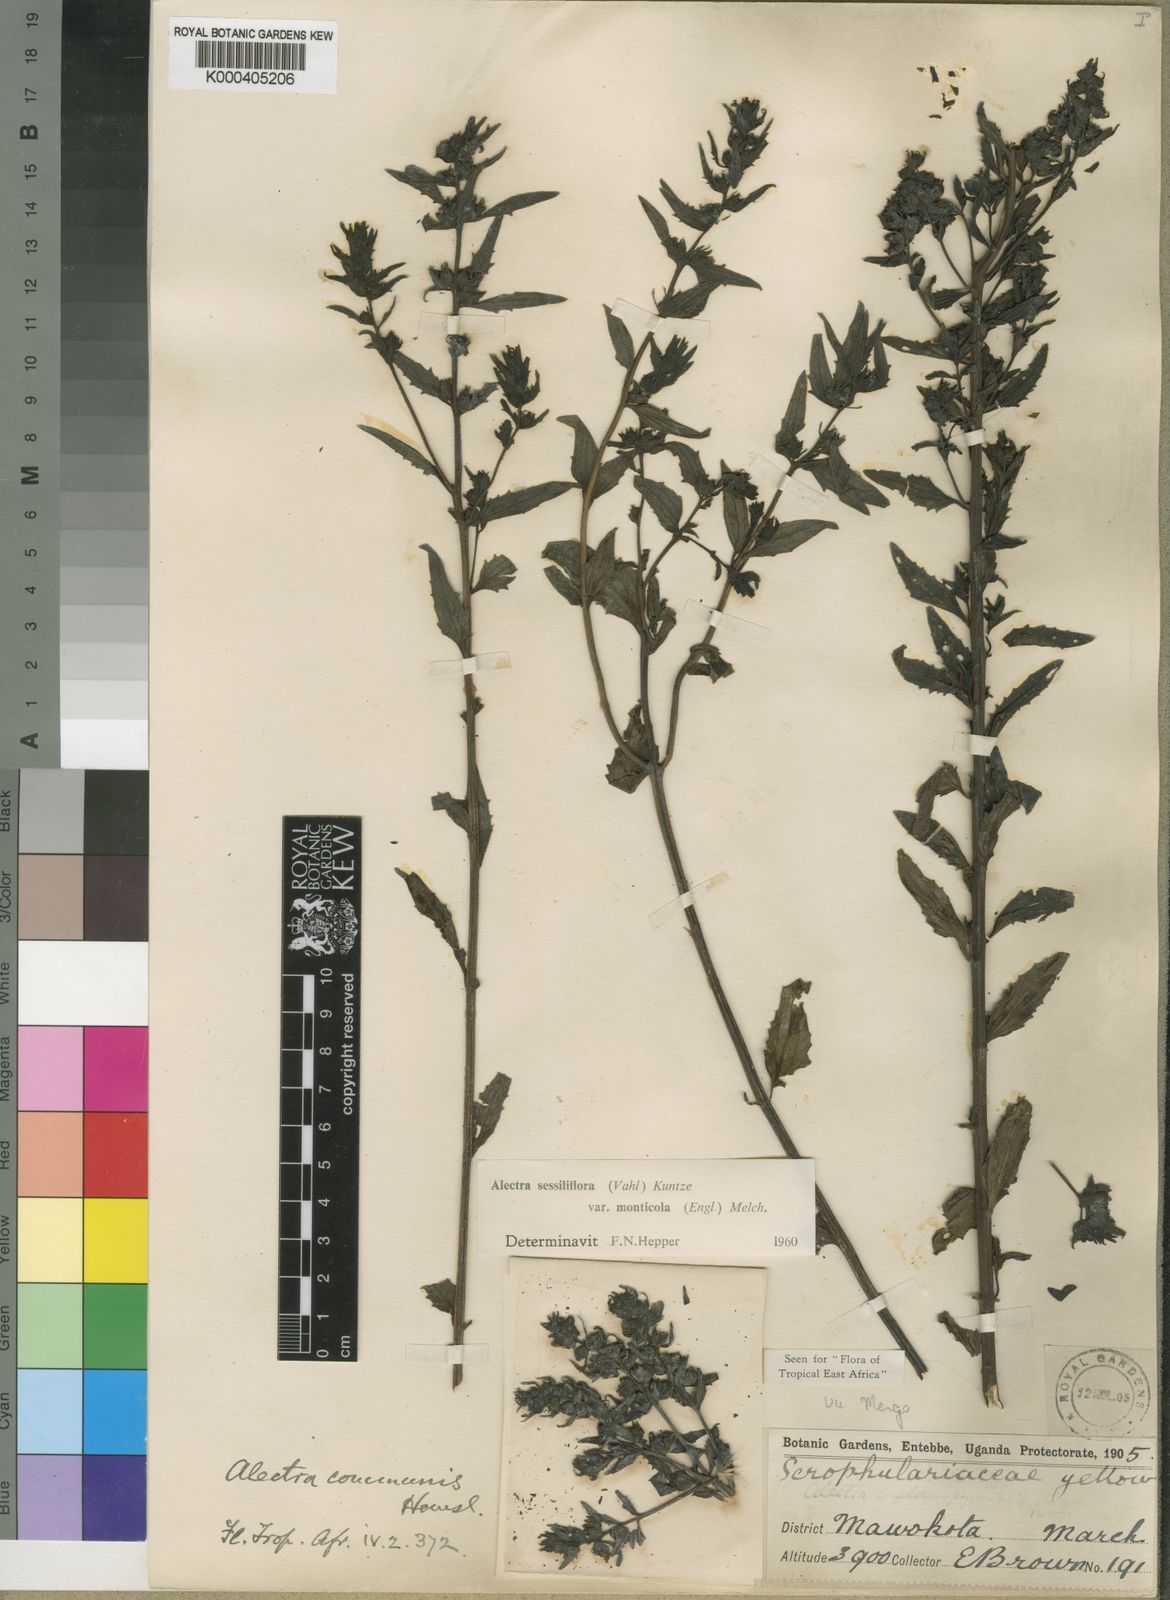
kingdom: Plantae
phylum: Tracheophyta
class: Magnoliopsida
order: Lamiales
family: Orobanchaceae
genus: Alectra
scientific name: Alectra sessiliflora
